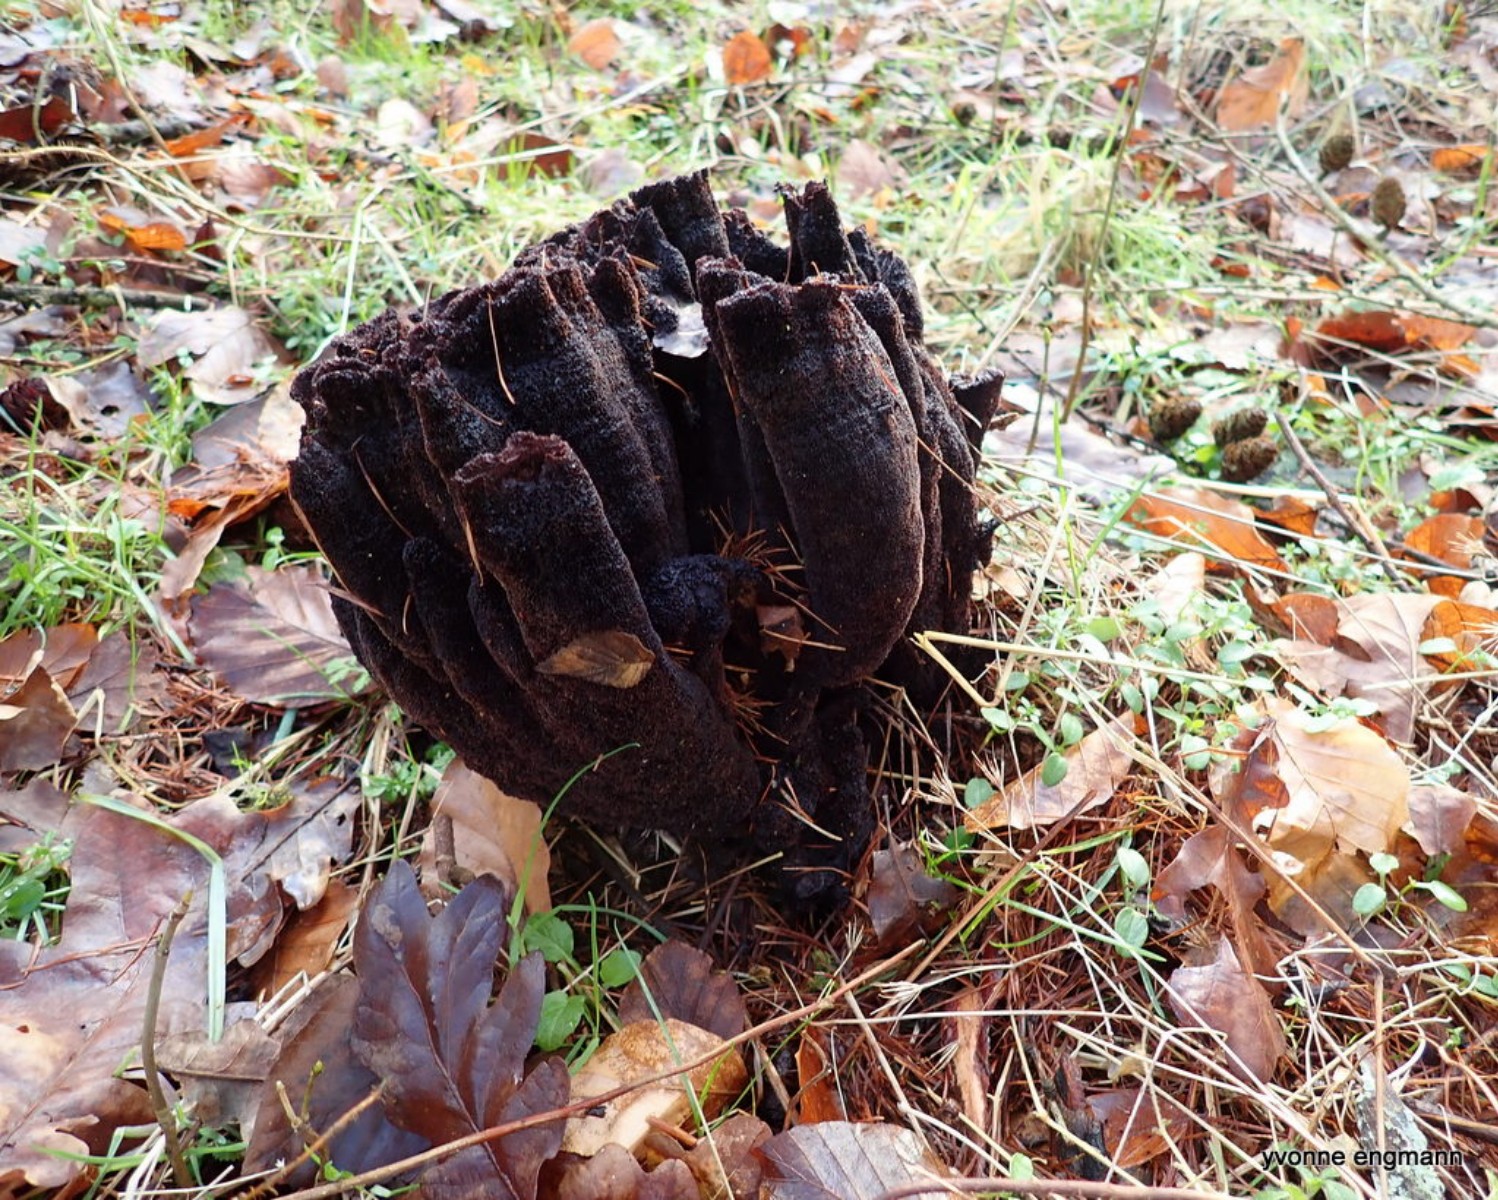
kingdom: Fungi
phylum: Basidiomycota
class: Agaricomycetes
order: Polyporales
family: Laetiporaceae
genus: Phaeolus
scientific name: Phaeolus schweinitzii
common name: brunporesvamp
